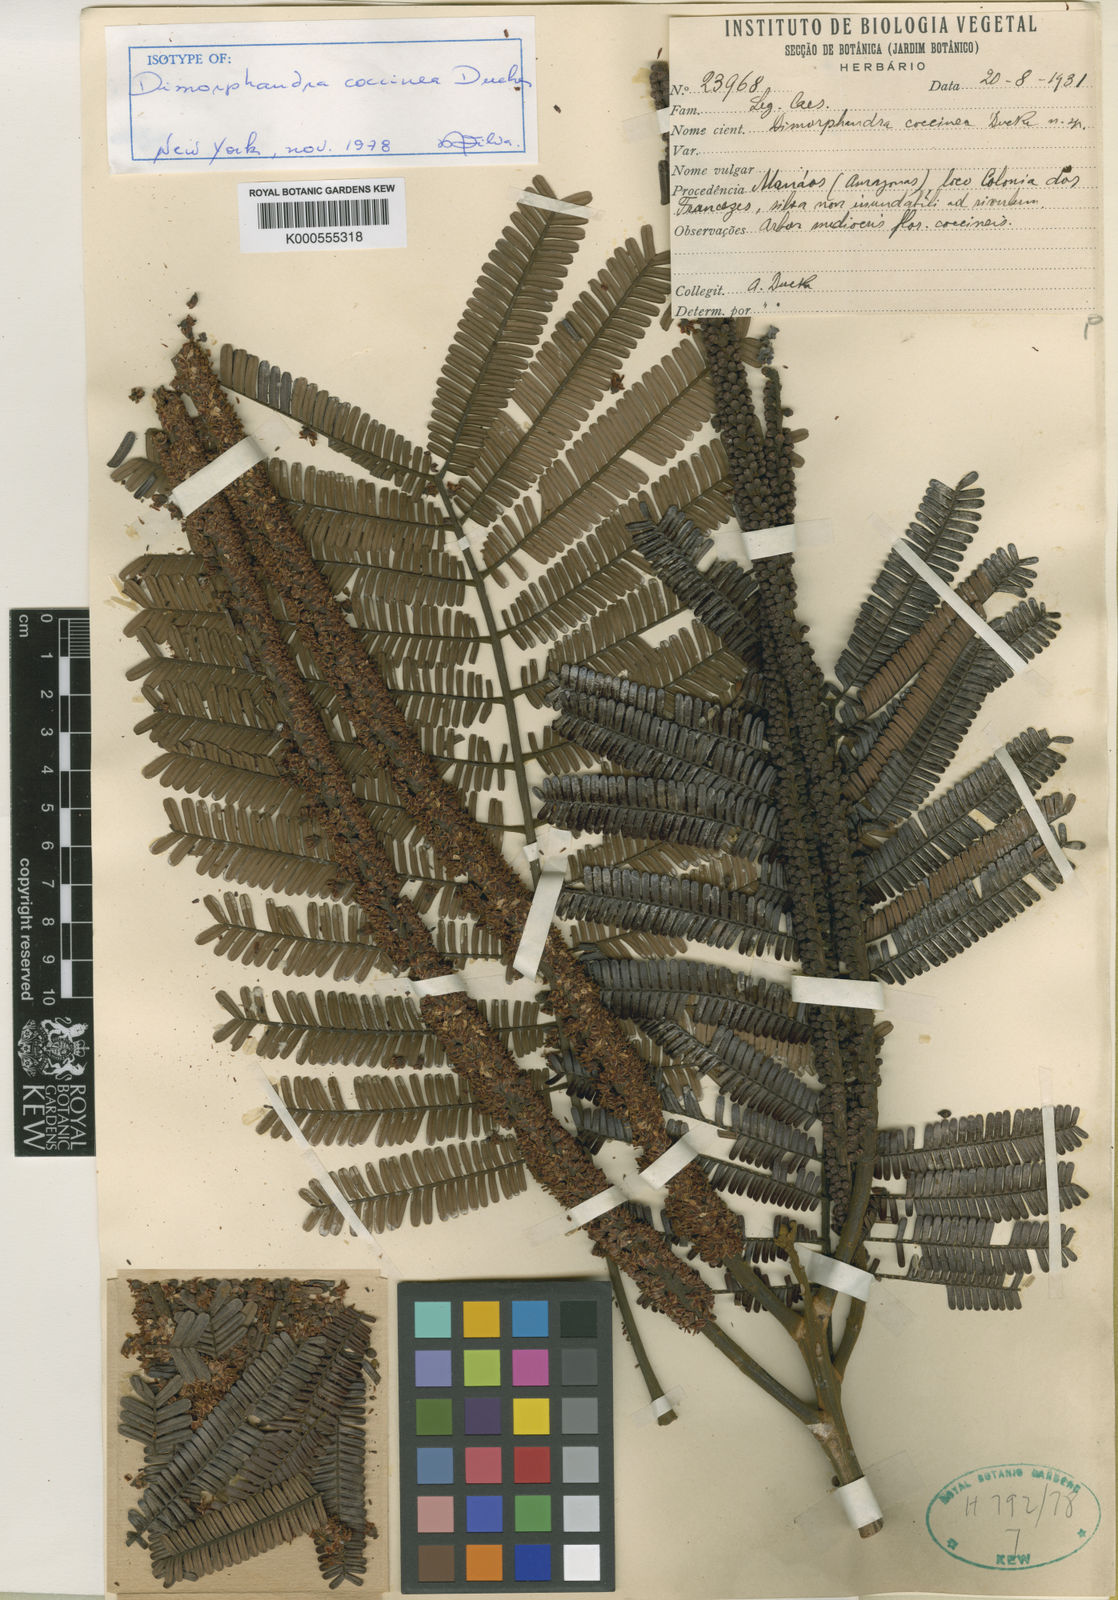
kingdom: Plantae
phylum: Tracheophyta
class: Magnoliopsida
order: Fabales
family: Fabaceae
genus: Dimorphandra
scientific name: Dimorphandra coccinea
